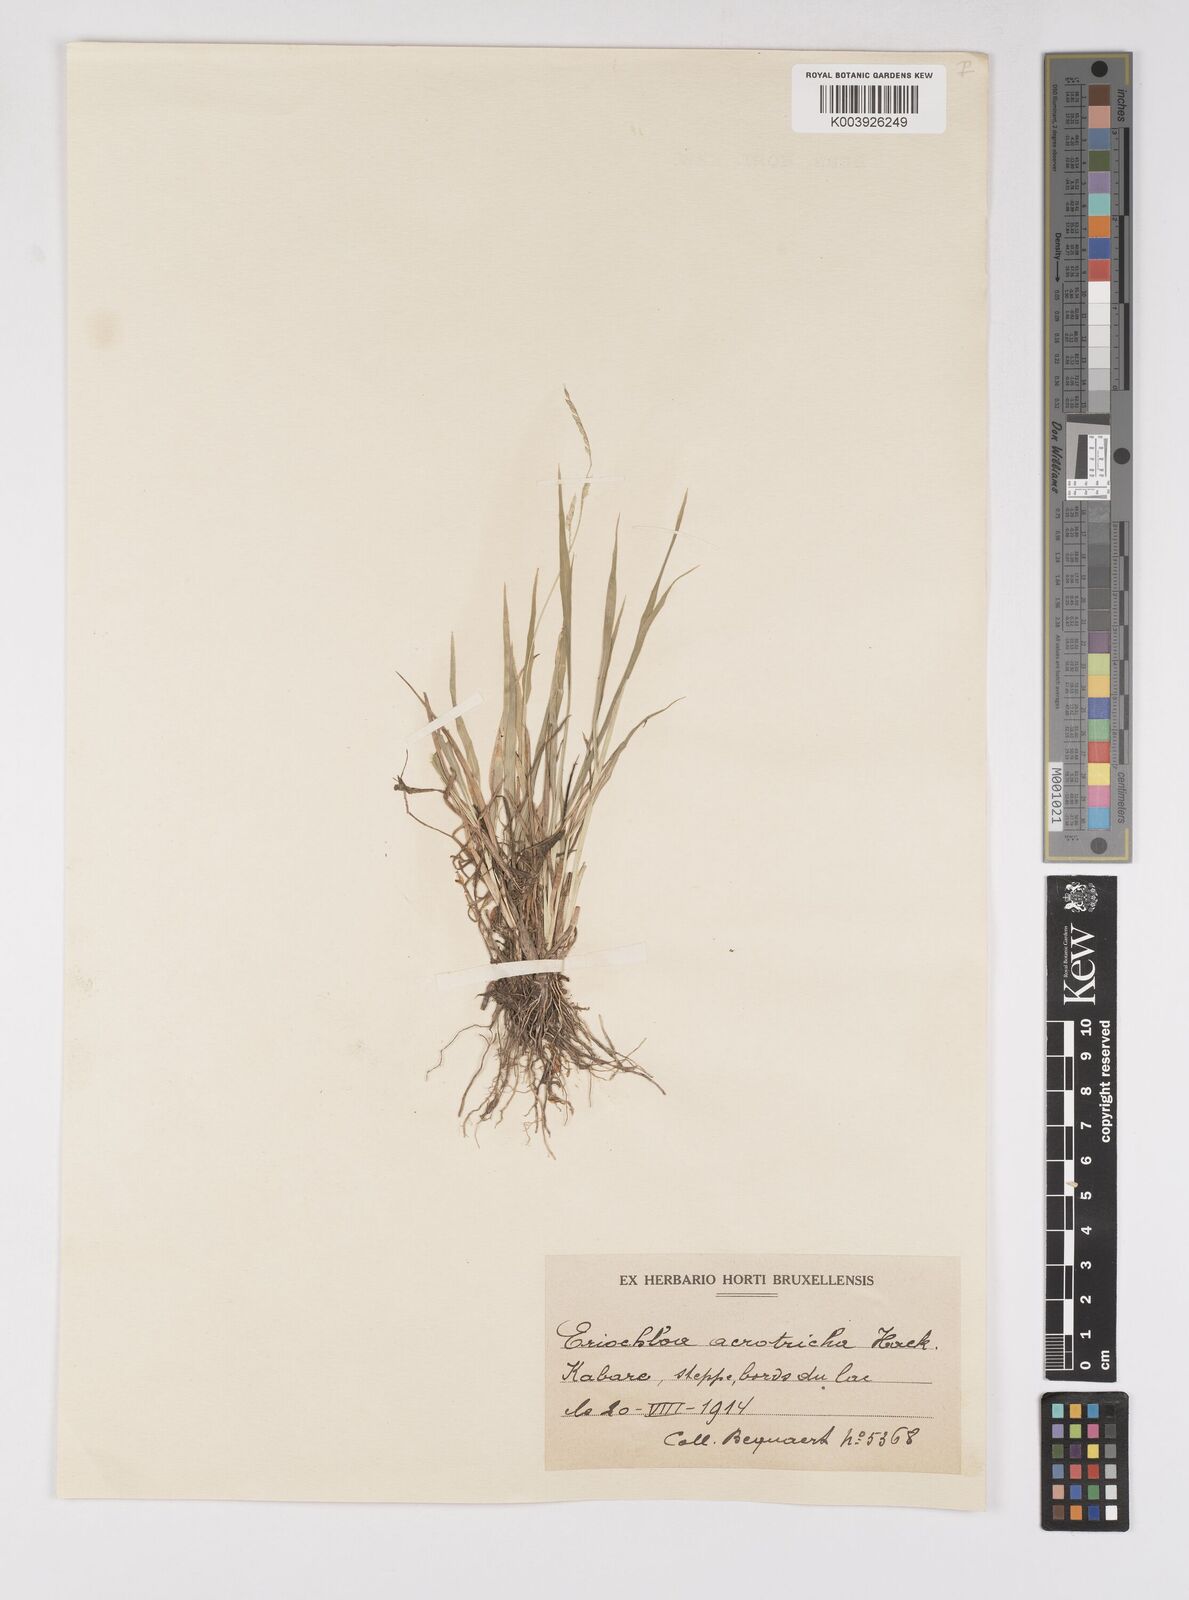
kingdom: Plantae
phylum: Tracheophyta
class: Liliopsida
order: Poales
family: Poaceae
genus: Eriochloa
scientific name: Eriochloa barbatus
